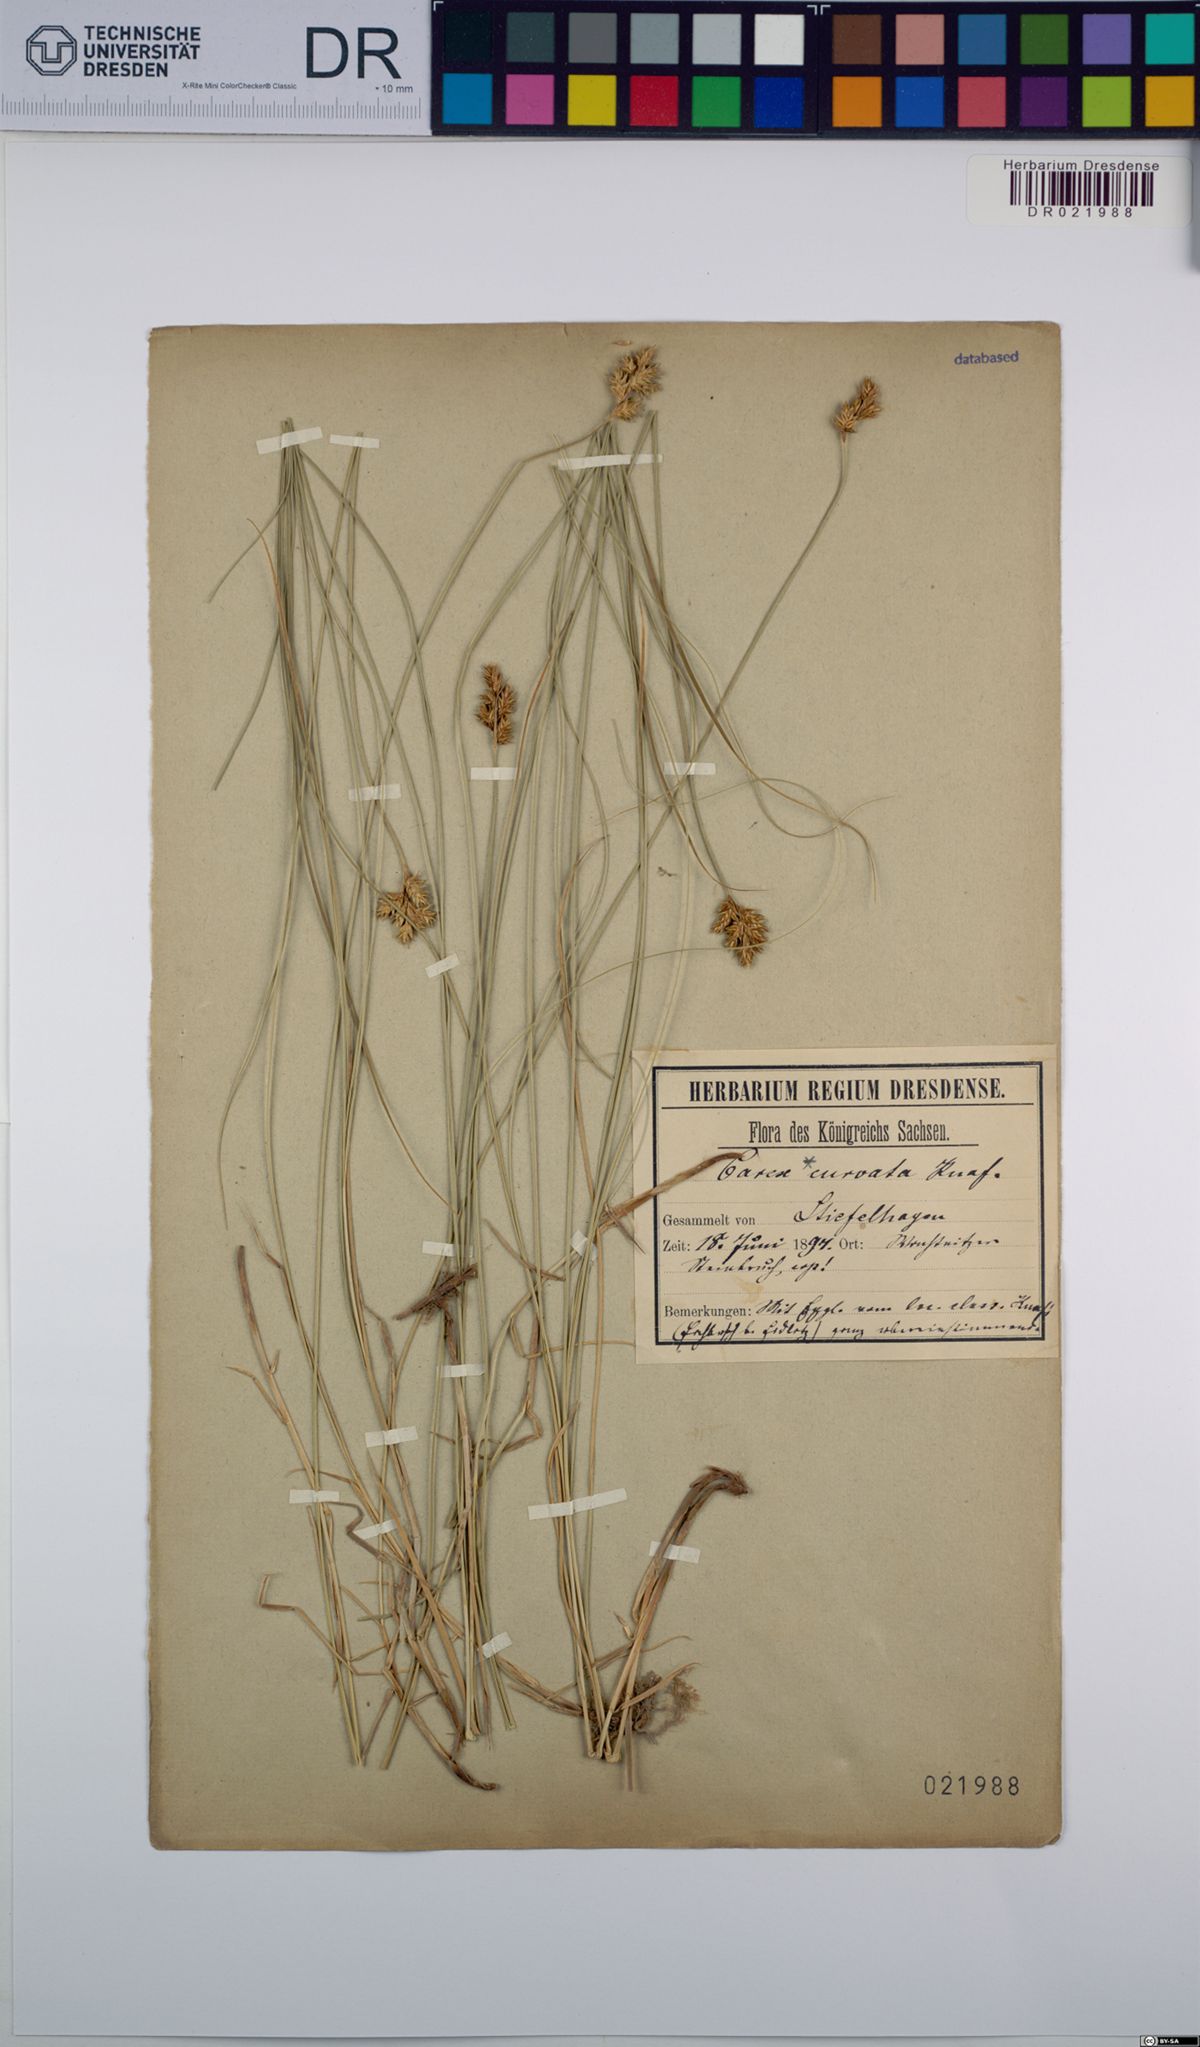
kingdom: Plantae
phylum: Tracheophyta
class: Liliopsida
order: Poales
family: Cyperaceae
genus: Carex
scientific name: Carex curvata
